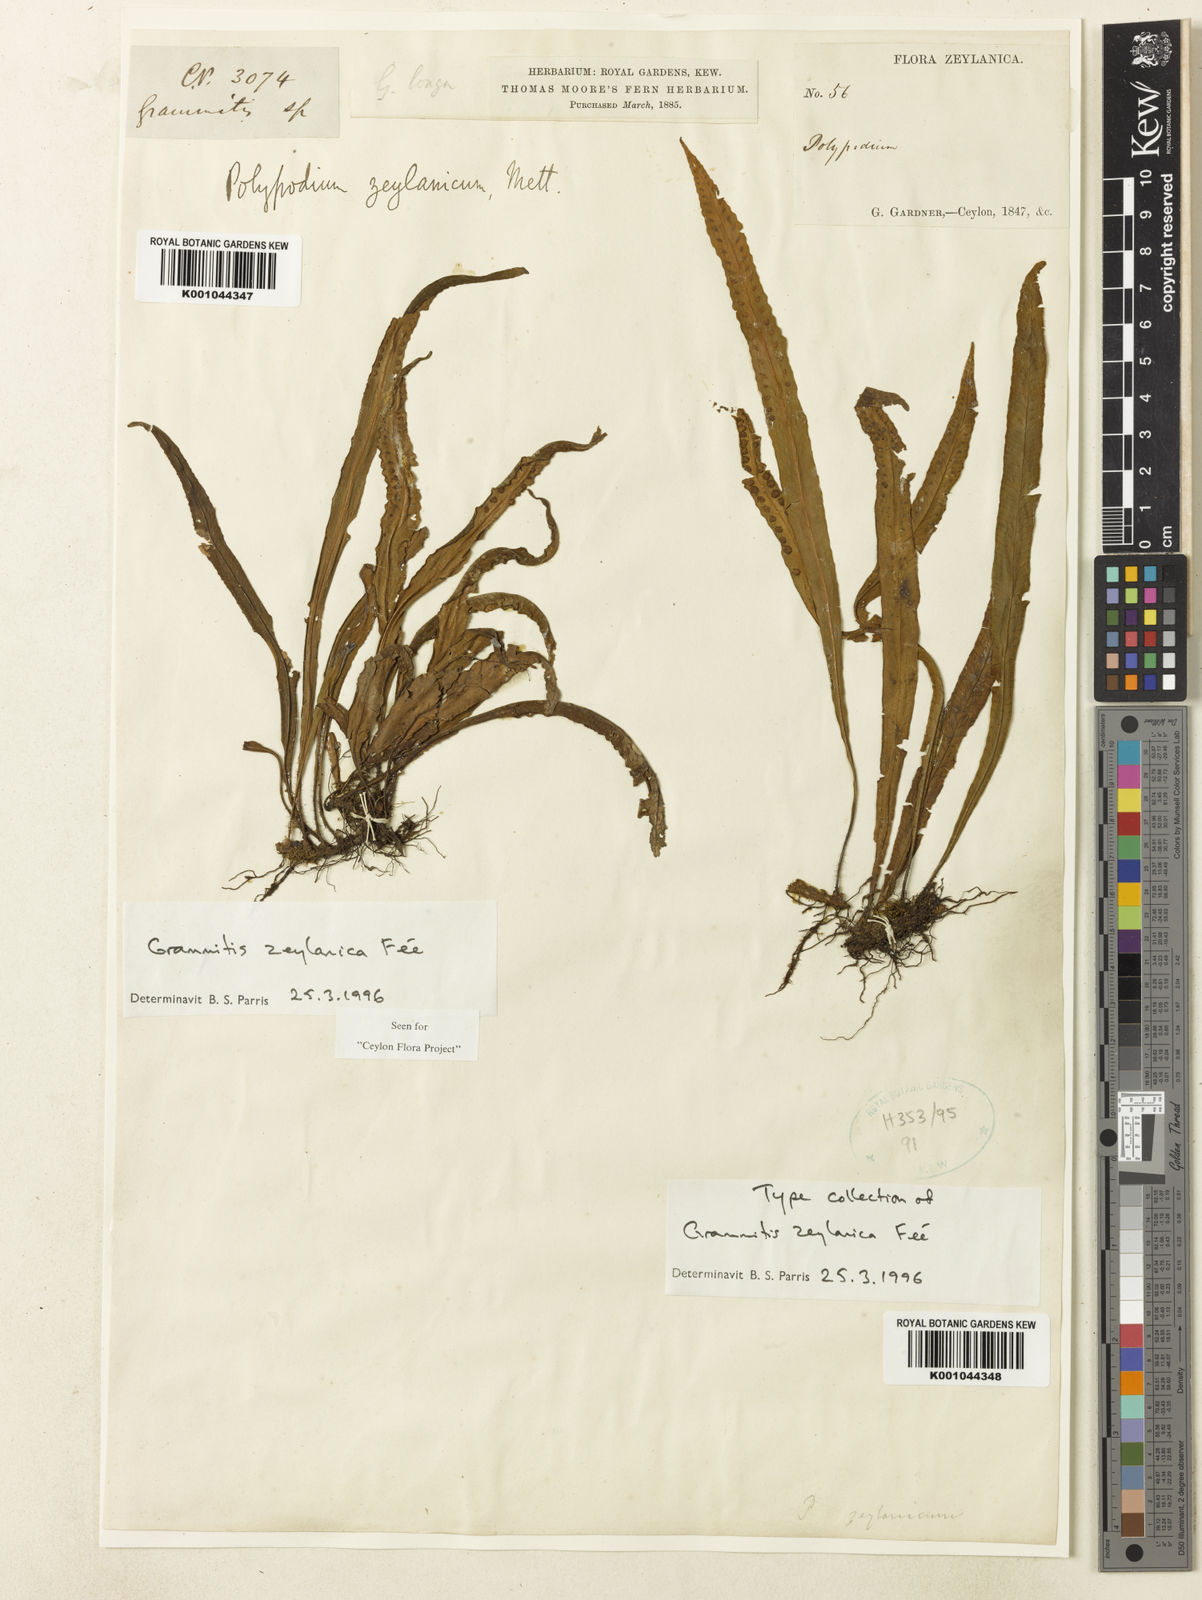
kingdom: Plantae
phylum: Tracheophyta
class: Polypodiopsida
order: Polypodiales
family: Polypodiaceae
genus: Grammitis
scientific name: Grammitis
